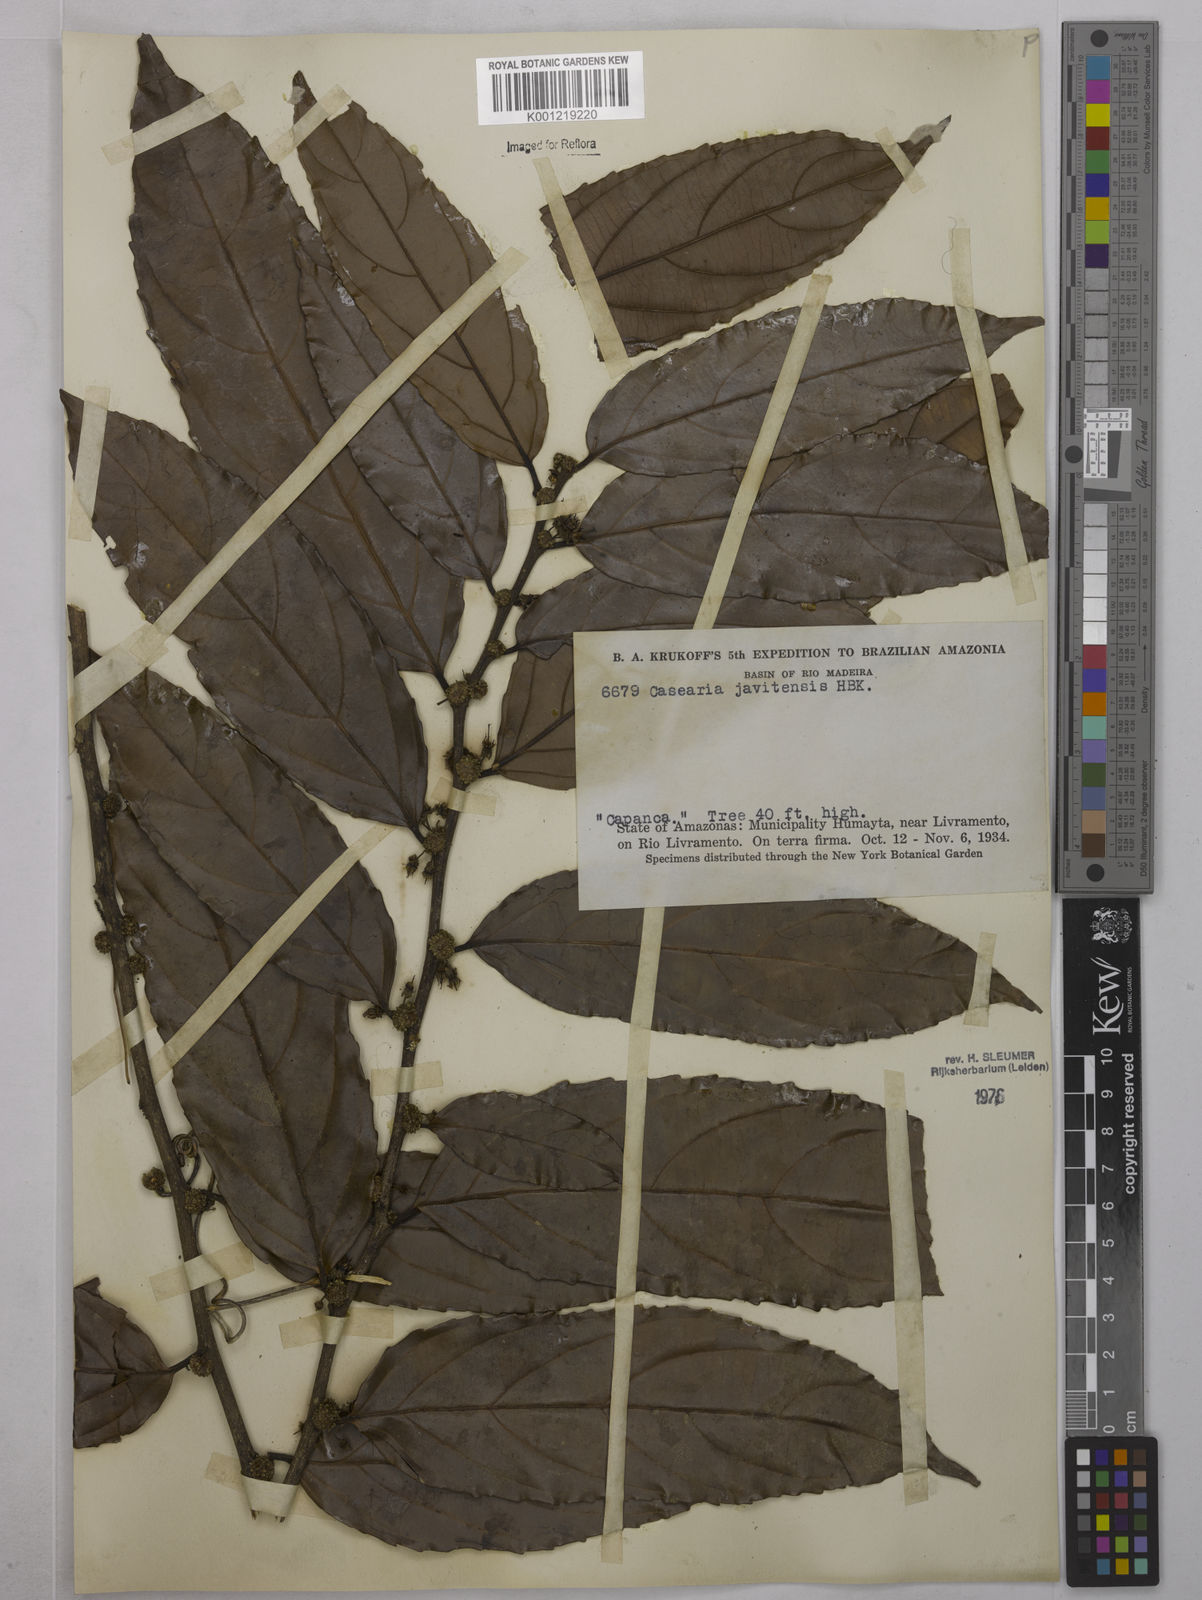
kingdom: Plantae
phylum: Tracheophyta
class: Magnoliopsida
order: Malpighiales
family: Salicaceae
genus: Piparea
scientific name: Piparea multiflora
